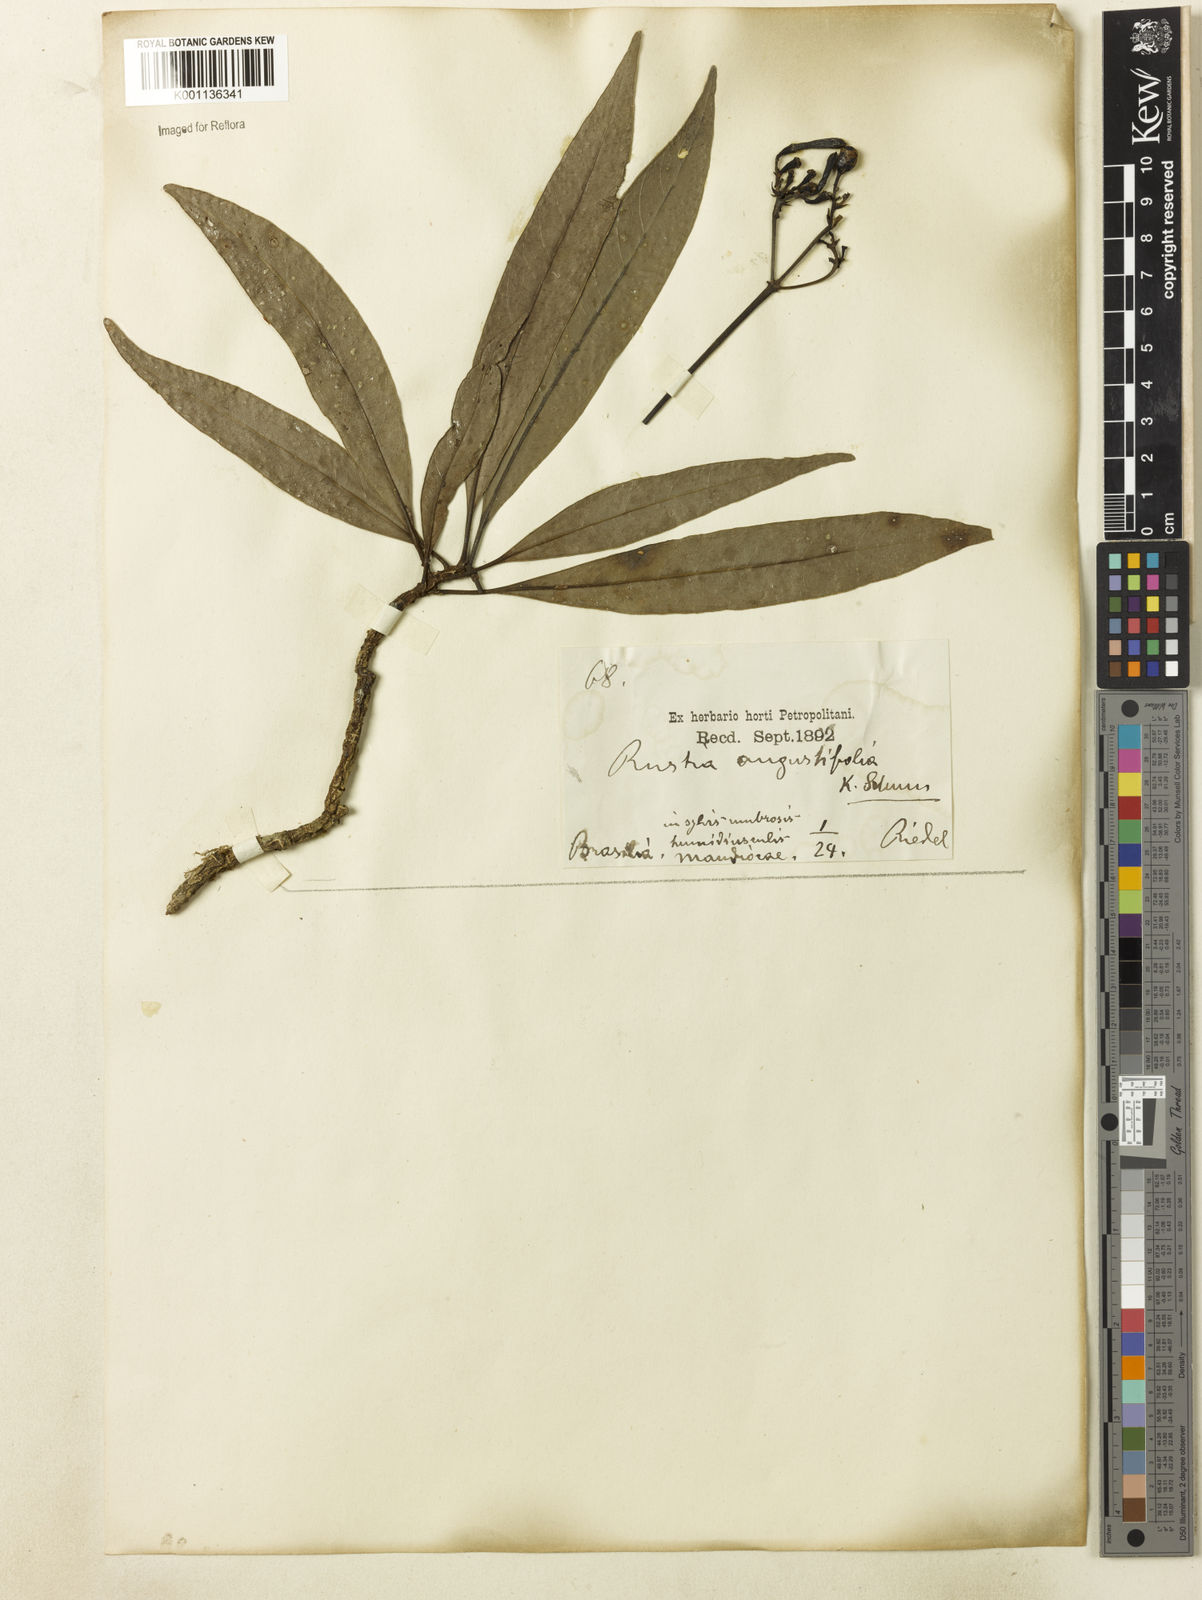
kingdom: Plantae
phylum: Tracheophyta
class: Magnoliopsida
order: Gentianales
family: Rubiaceae
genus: Rustia
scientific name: Rustia angustifolia
